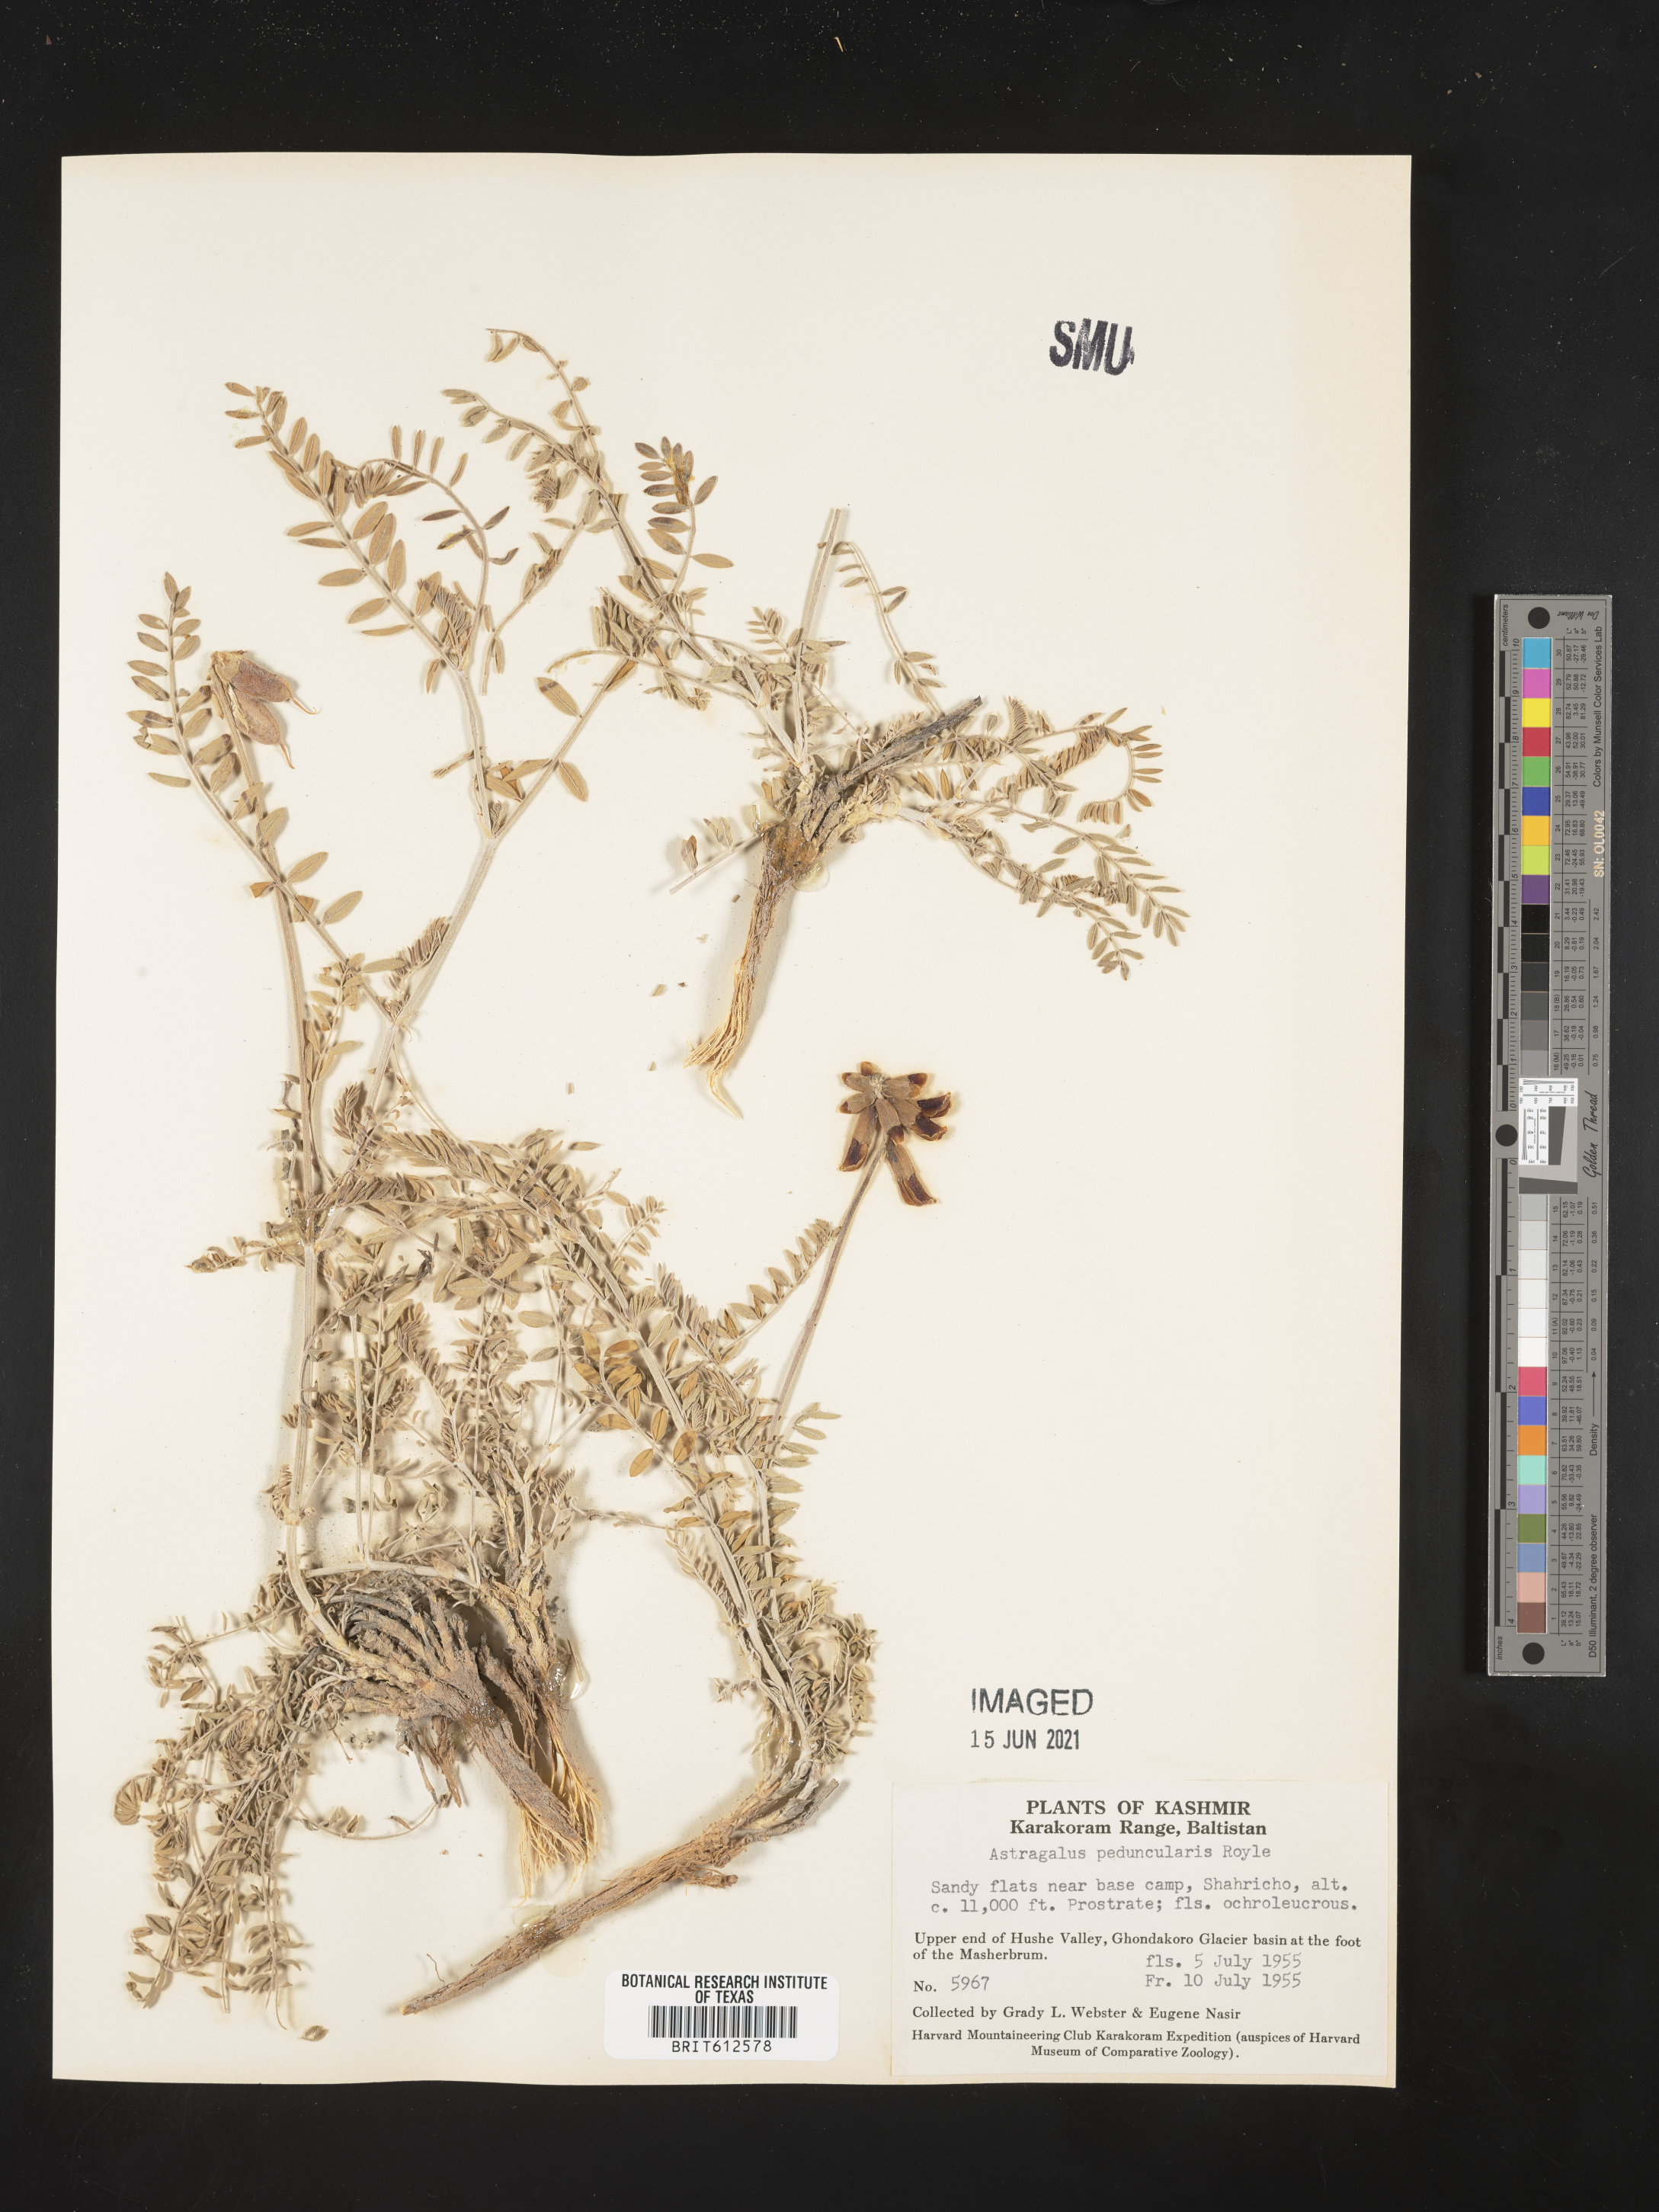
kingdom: Plantae
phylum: Tracheophyta
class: Magnoliopsida
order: Fabales
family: Fabaceae
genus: Astragalus
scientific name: Astragalus peduncularis
